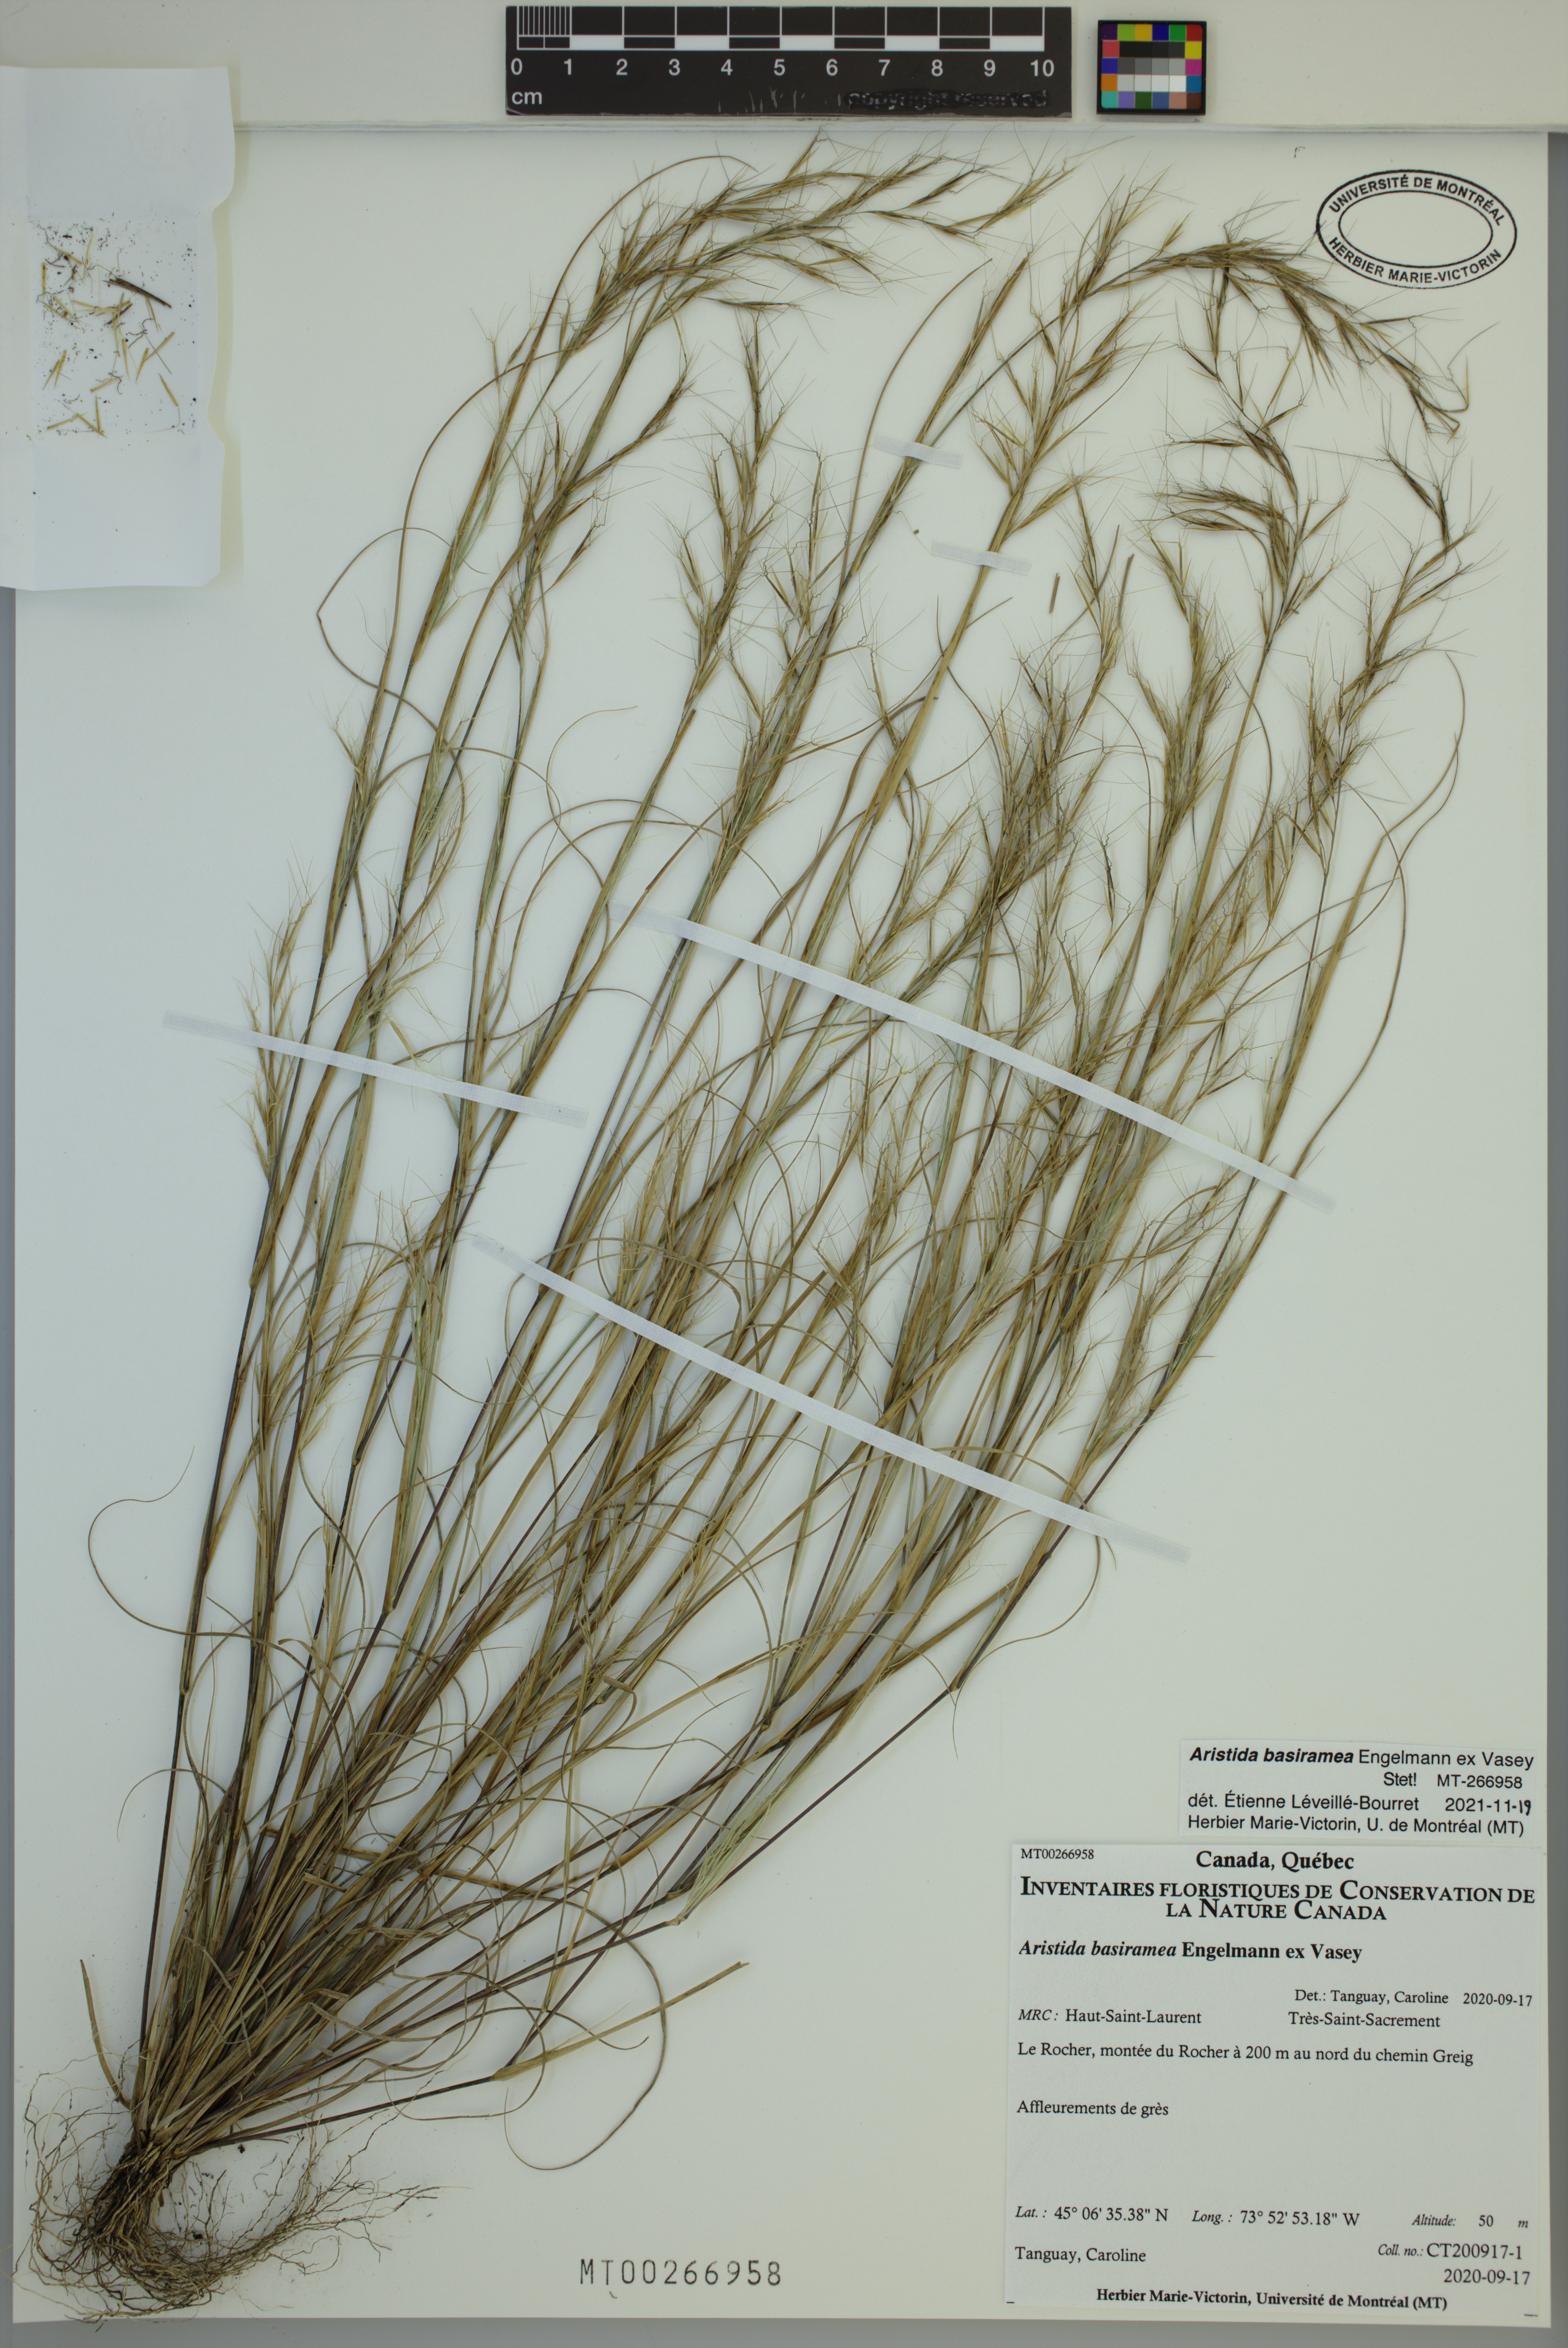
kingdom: Plantae
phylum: Tracheophyta
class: Liliopsida
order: Poales
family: Poaceae
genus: Aristida
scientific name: Aristida basiramea
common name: Forked three-awned grass
